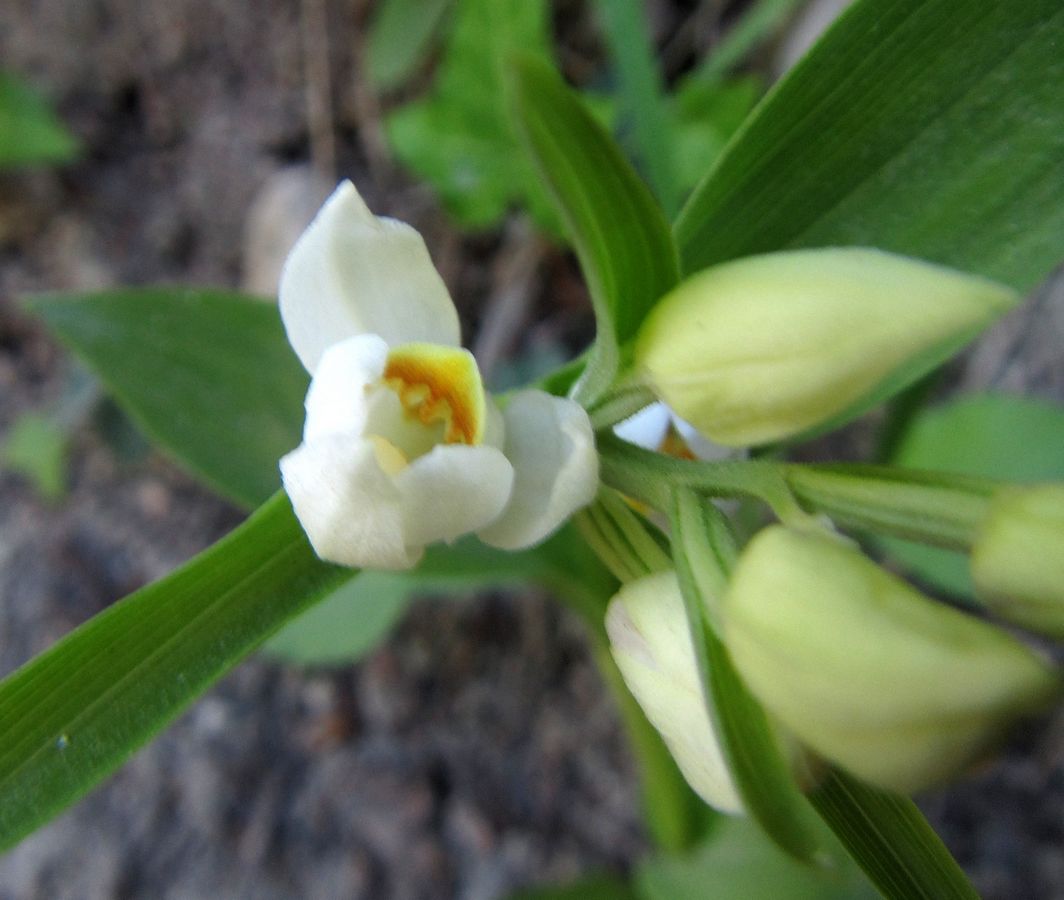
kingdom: Plantae
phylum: Tracheophyta
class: Liliopsida
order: Asparagales
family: Orchidaceae
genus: Cephalanthera
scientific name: Cephalanthera damasonium
